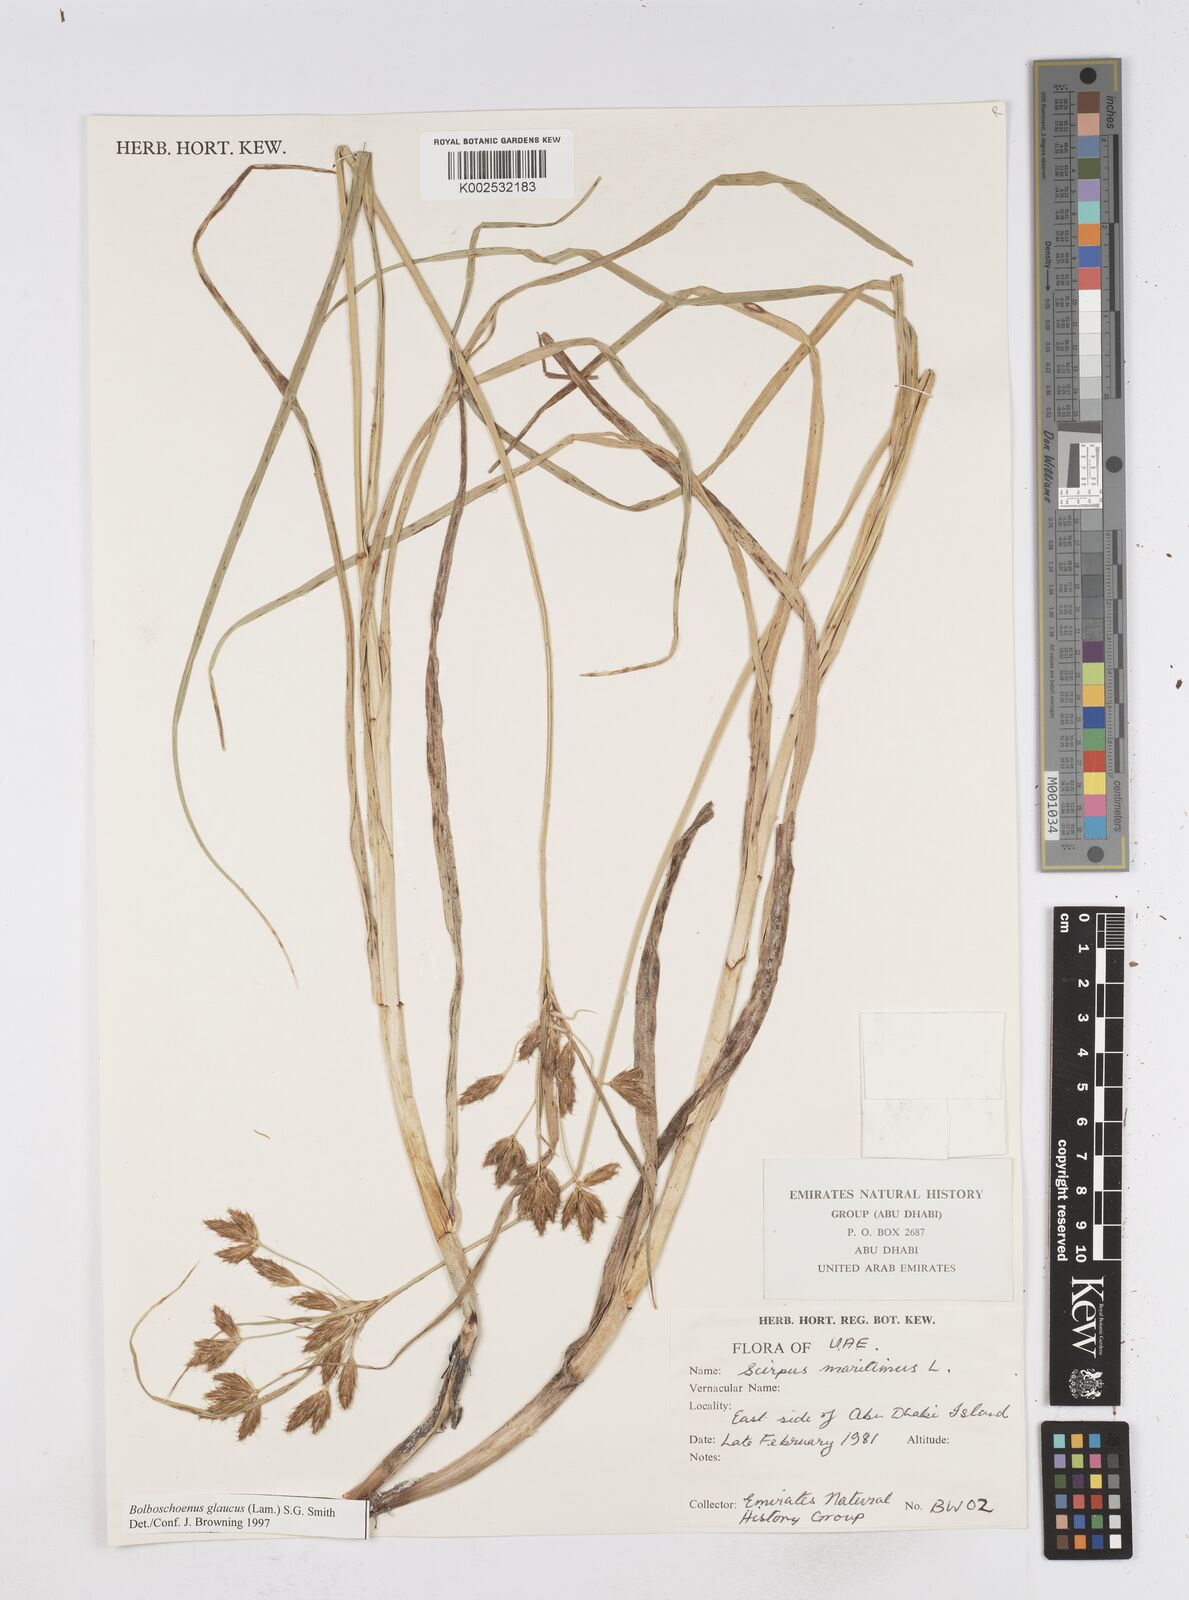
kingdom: Plantae
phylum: Tracheophyta
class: Liliopsida
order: Poales
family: Cyperaceae
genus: Bolboschoenus
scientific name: Bolboschoenus maritimus
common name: Sea club-rush
